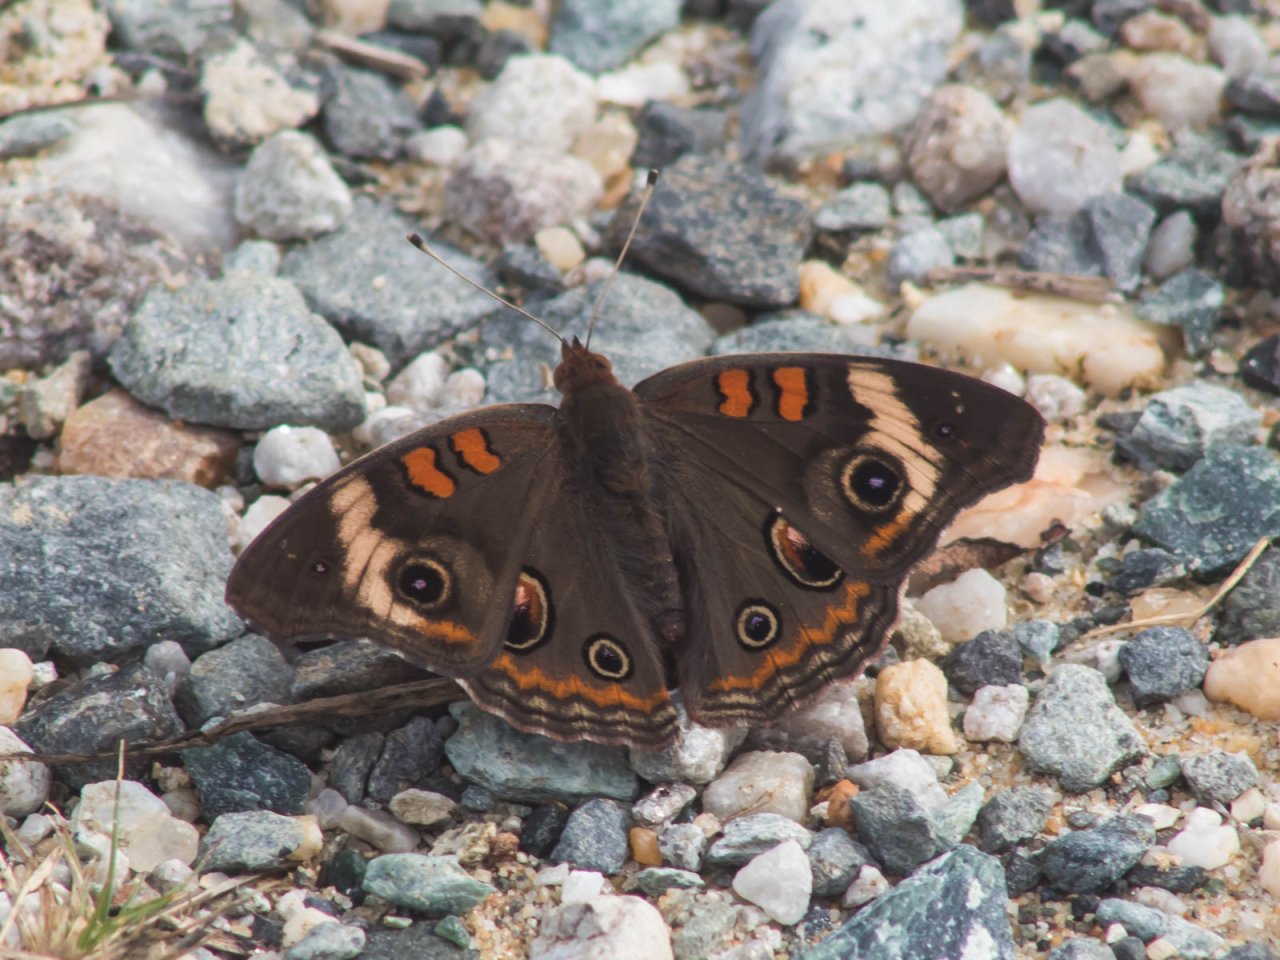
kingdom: Animalia
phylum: Arthropoda
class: Insecta
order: Lepidoptera
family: Nymphalidae
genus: Junonia
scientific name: Junonia coenia
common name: Common Buckeye
